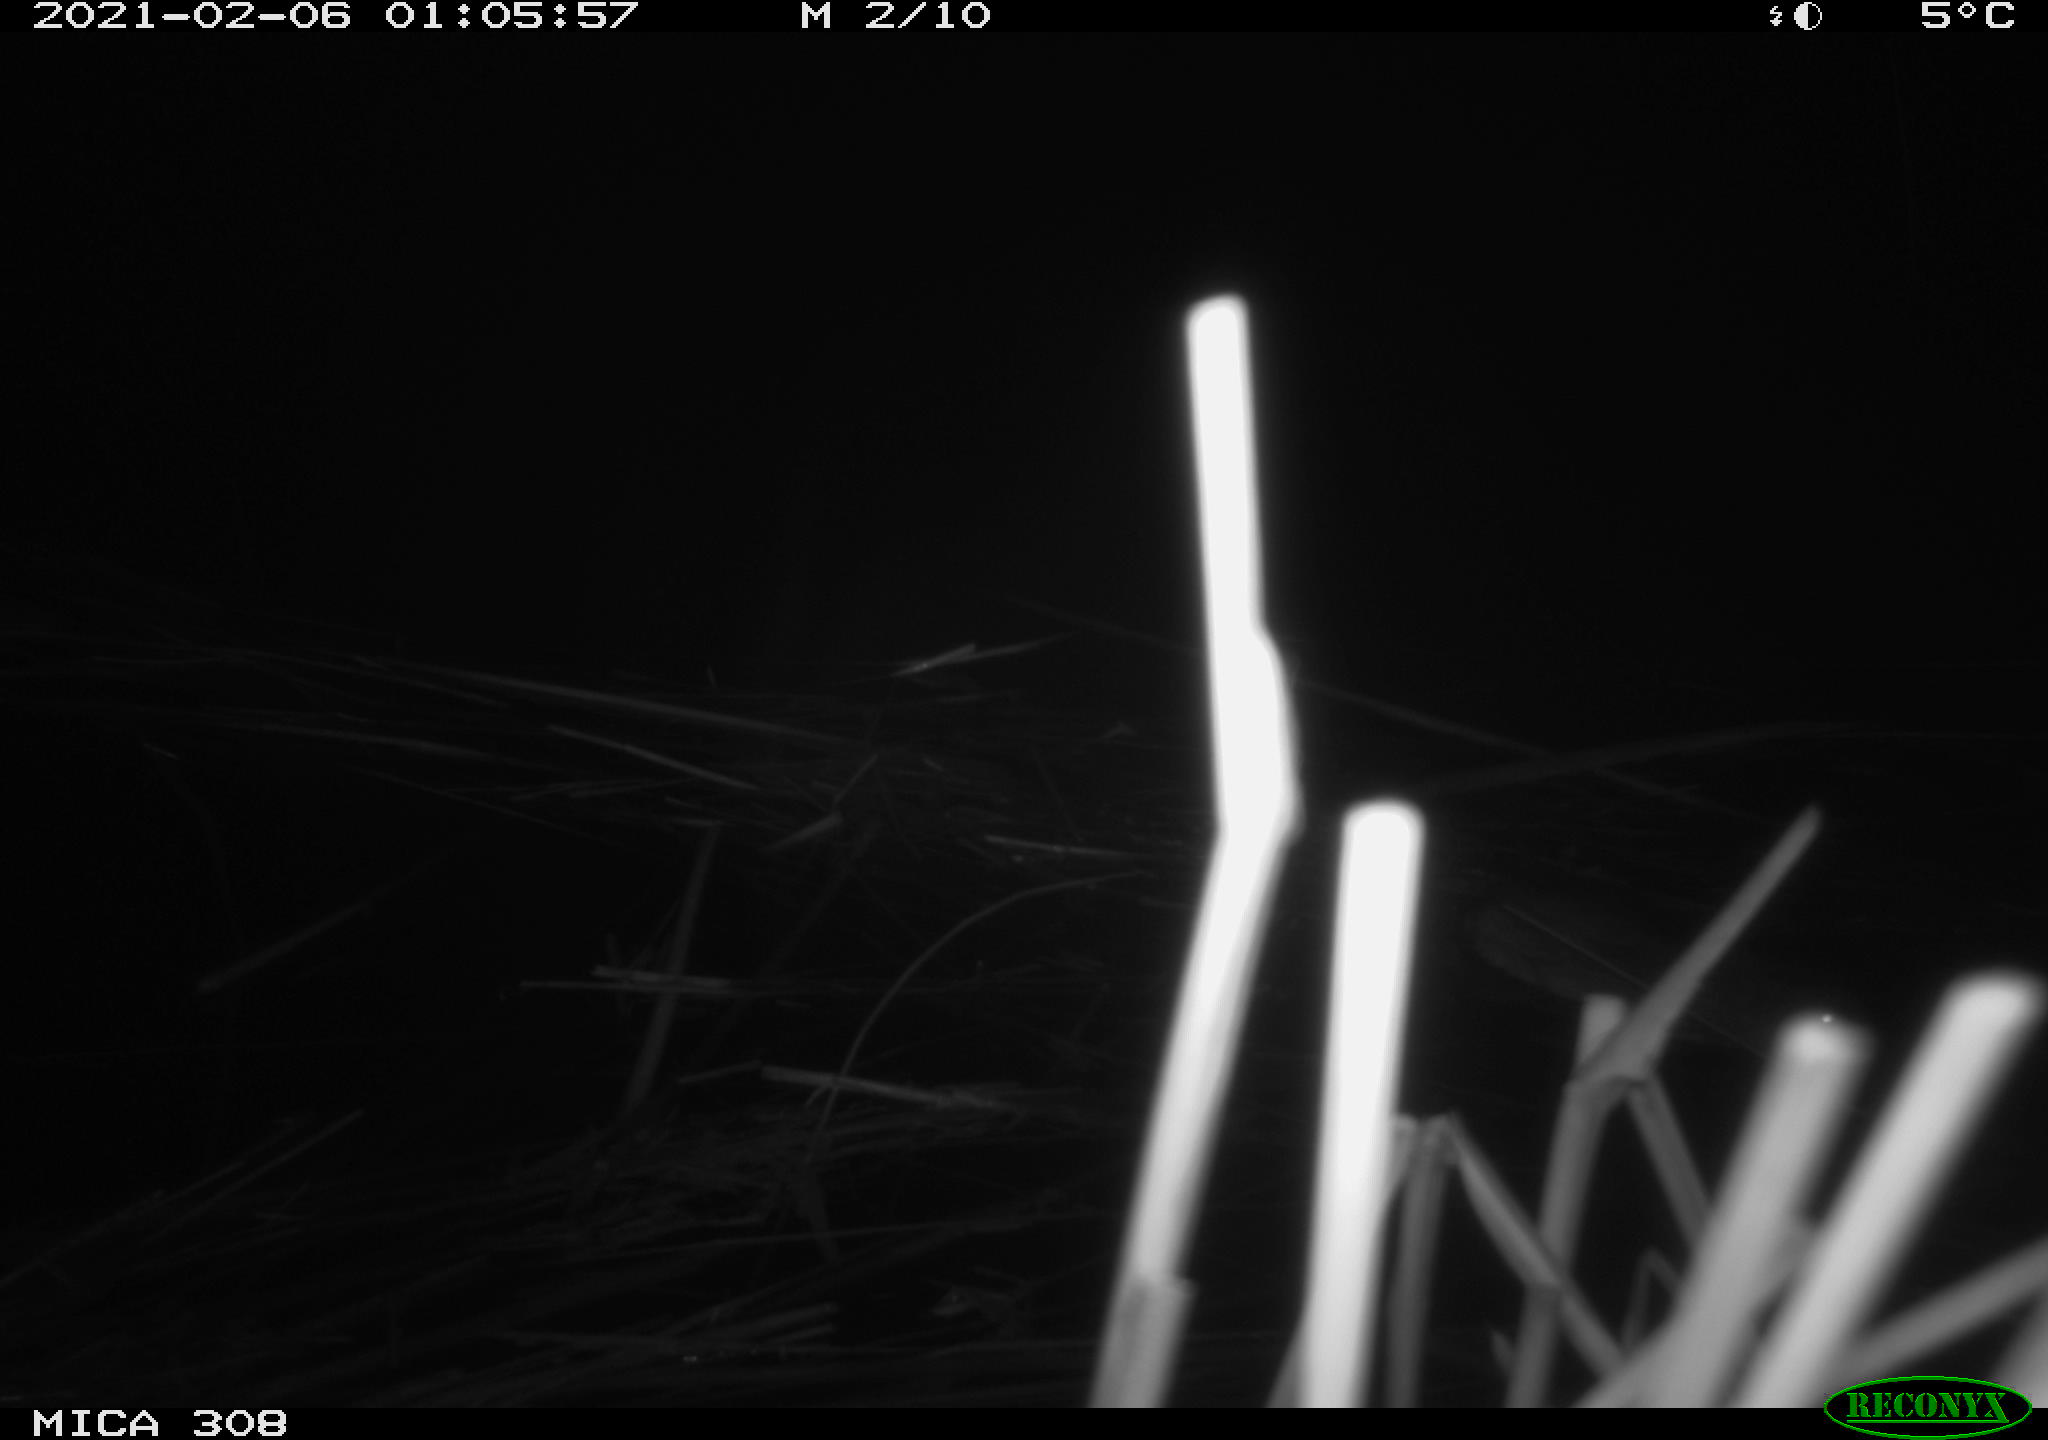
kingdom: Animalia
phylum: Chordata
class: Mammalia
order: Rodentia
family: Muridae
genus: Rattus
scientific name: Rattus norvegicus
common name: Brown rat
